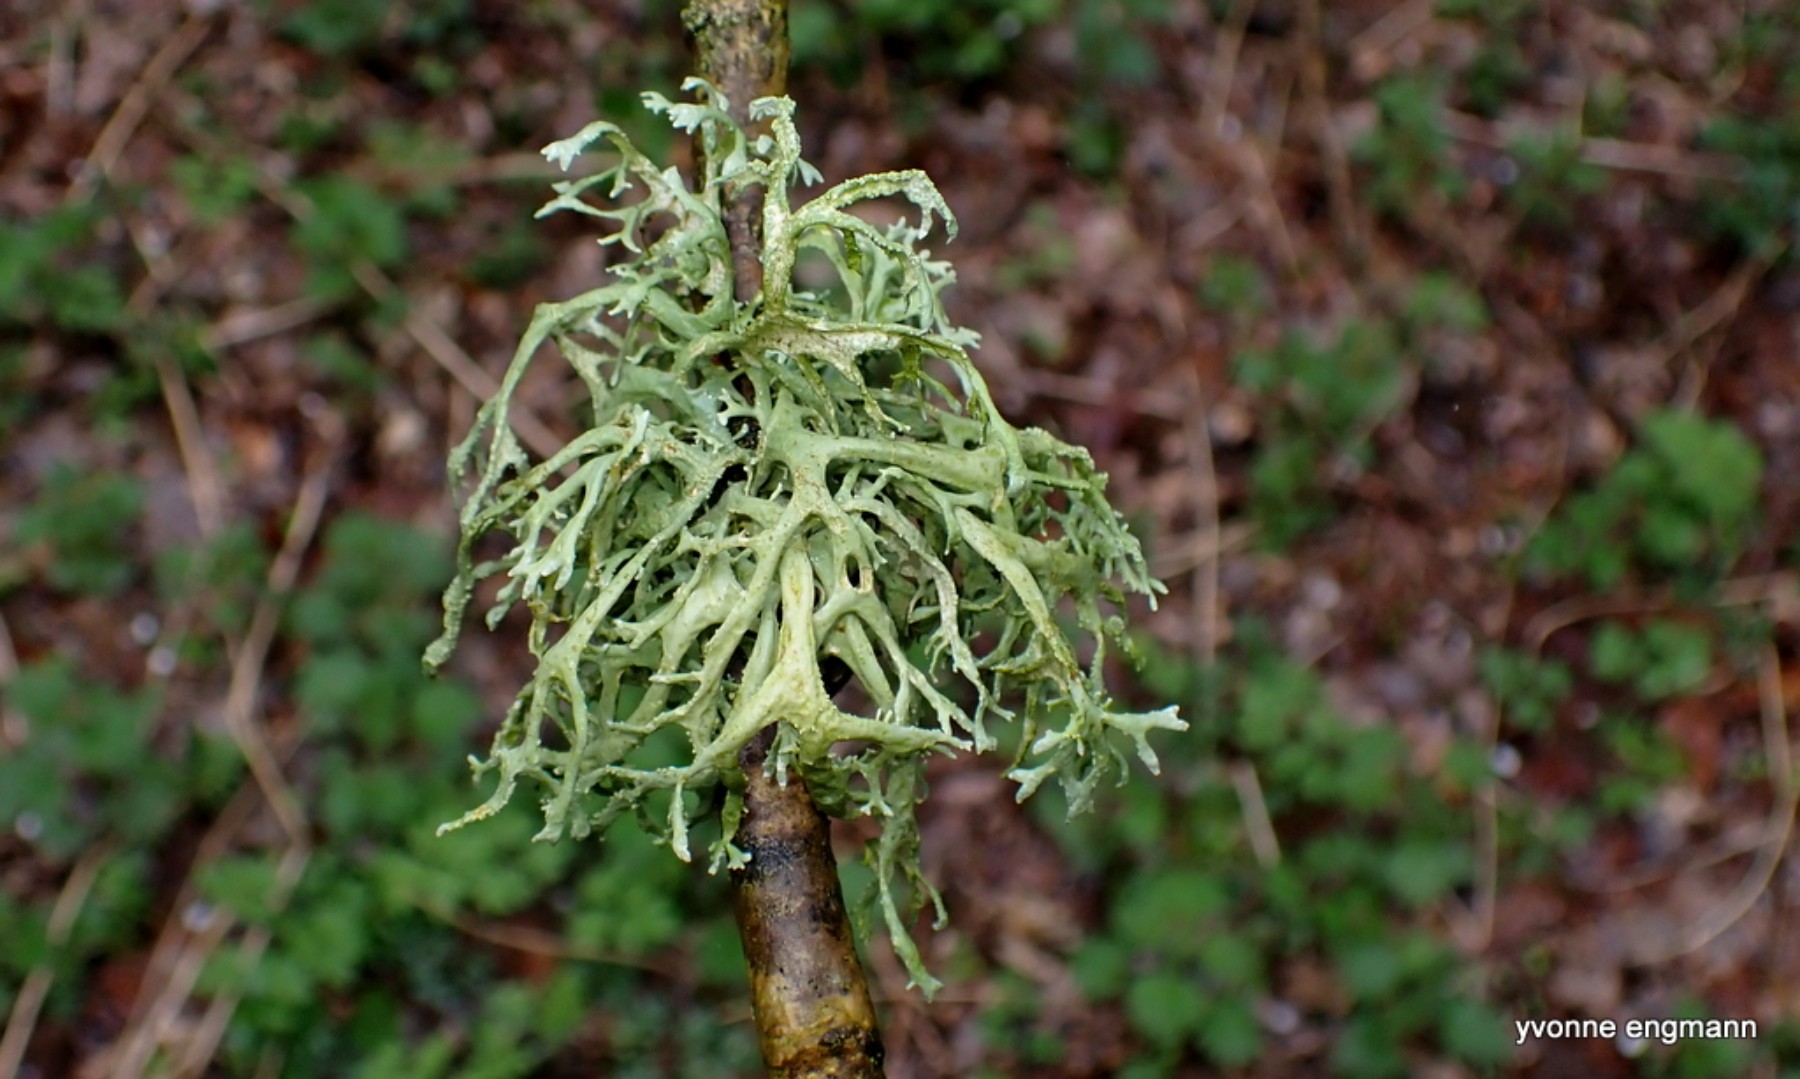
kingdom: Fungi
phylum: Ascomycota
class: Lecanoromycetes
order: Lecanorales
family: Parmeliaceae
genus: Evernia
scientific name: Evernia prunastri
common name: almindelig slåenlav
